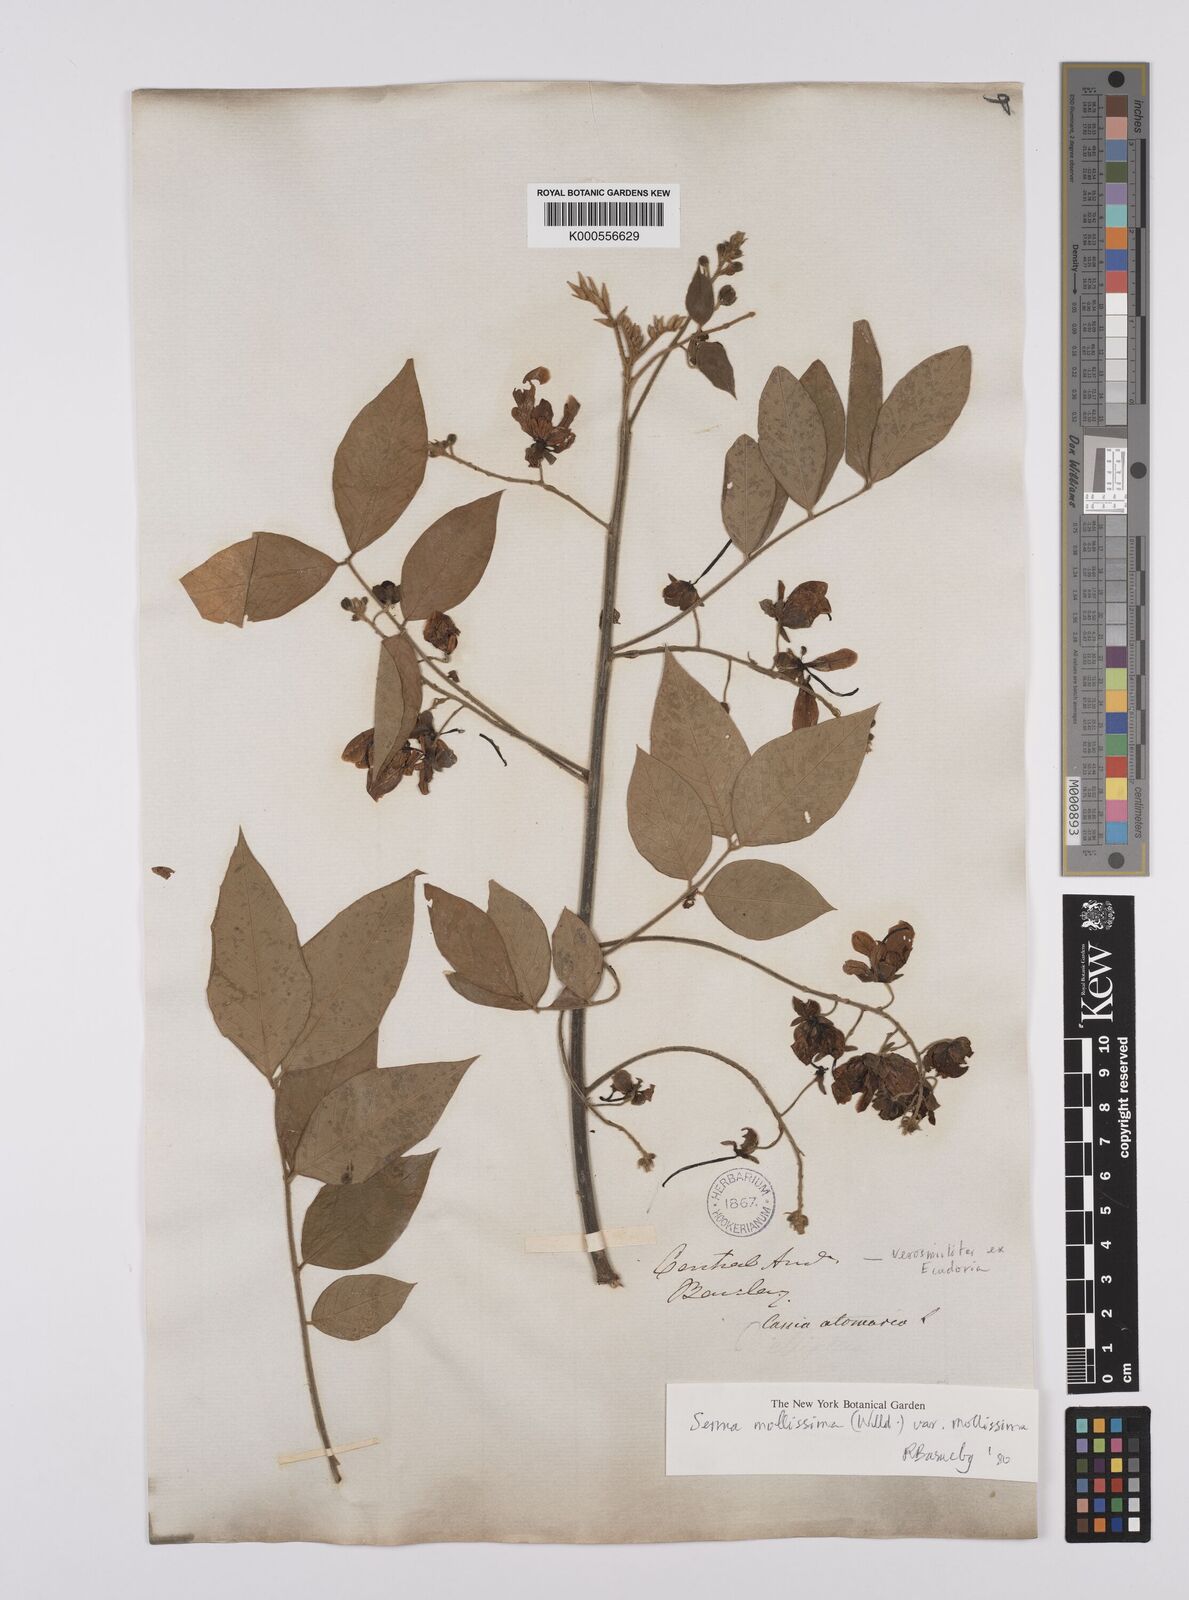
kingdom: Plantae
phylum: Tracheophyta
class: Magnoliopsida
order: Fabales
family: Fabaceae
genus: Senna
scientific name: Senna mollissima
